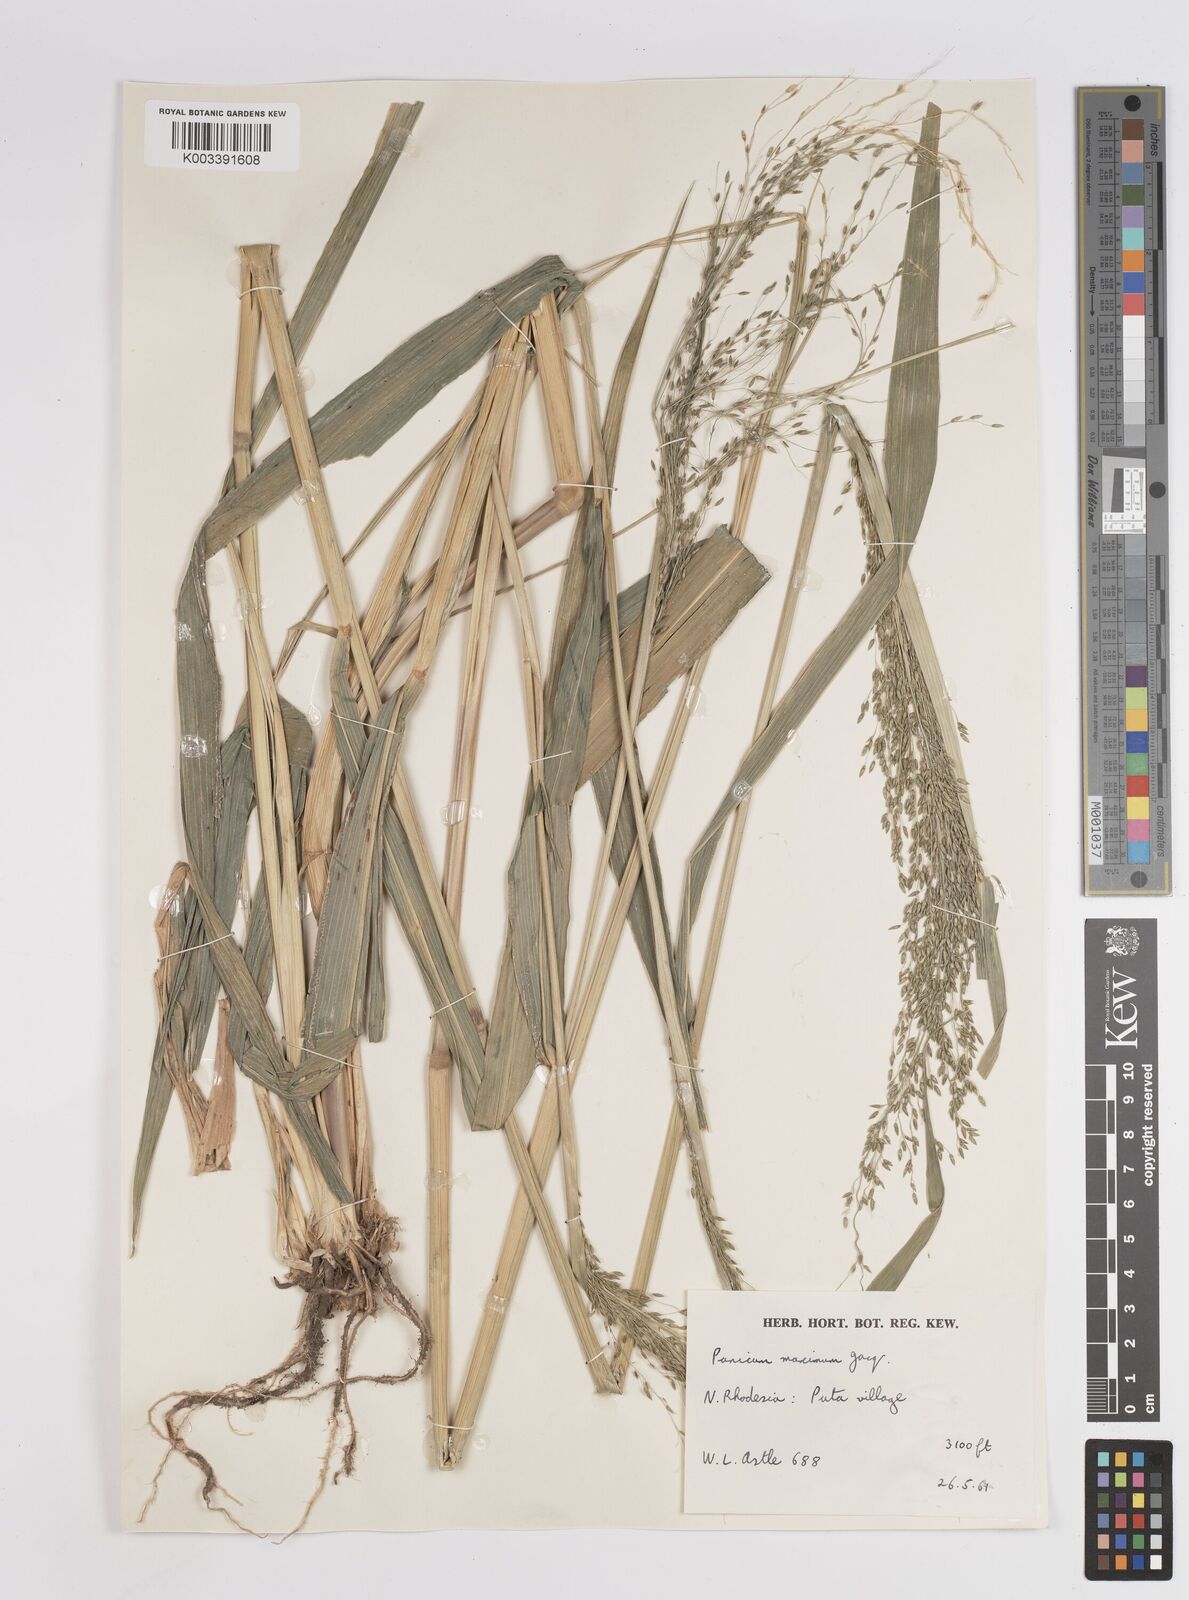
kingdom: Plantae
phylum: Tracheophyta
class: Liliopsida
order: Poales
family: Poaceae
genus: Megathyrsus
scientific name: Megathyrsus maximus
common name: Guineagrass
